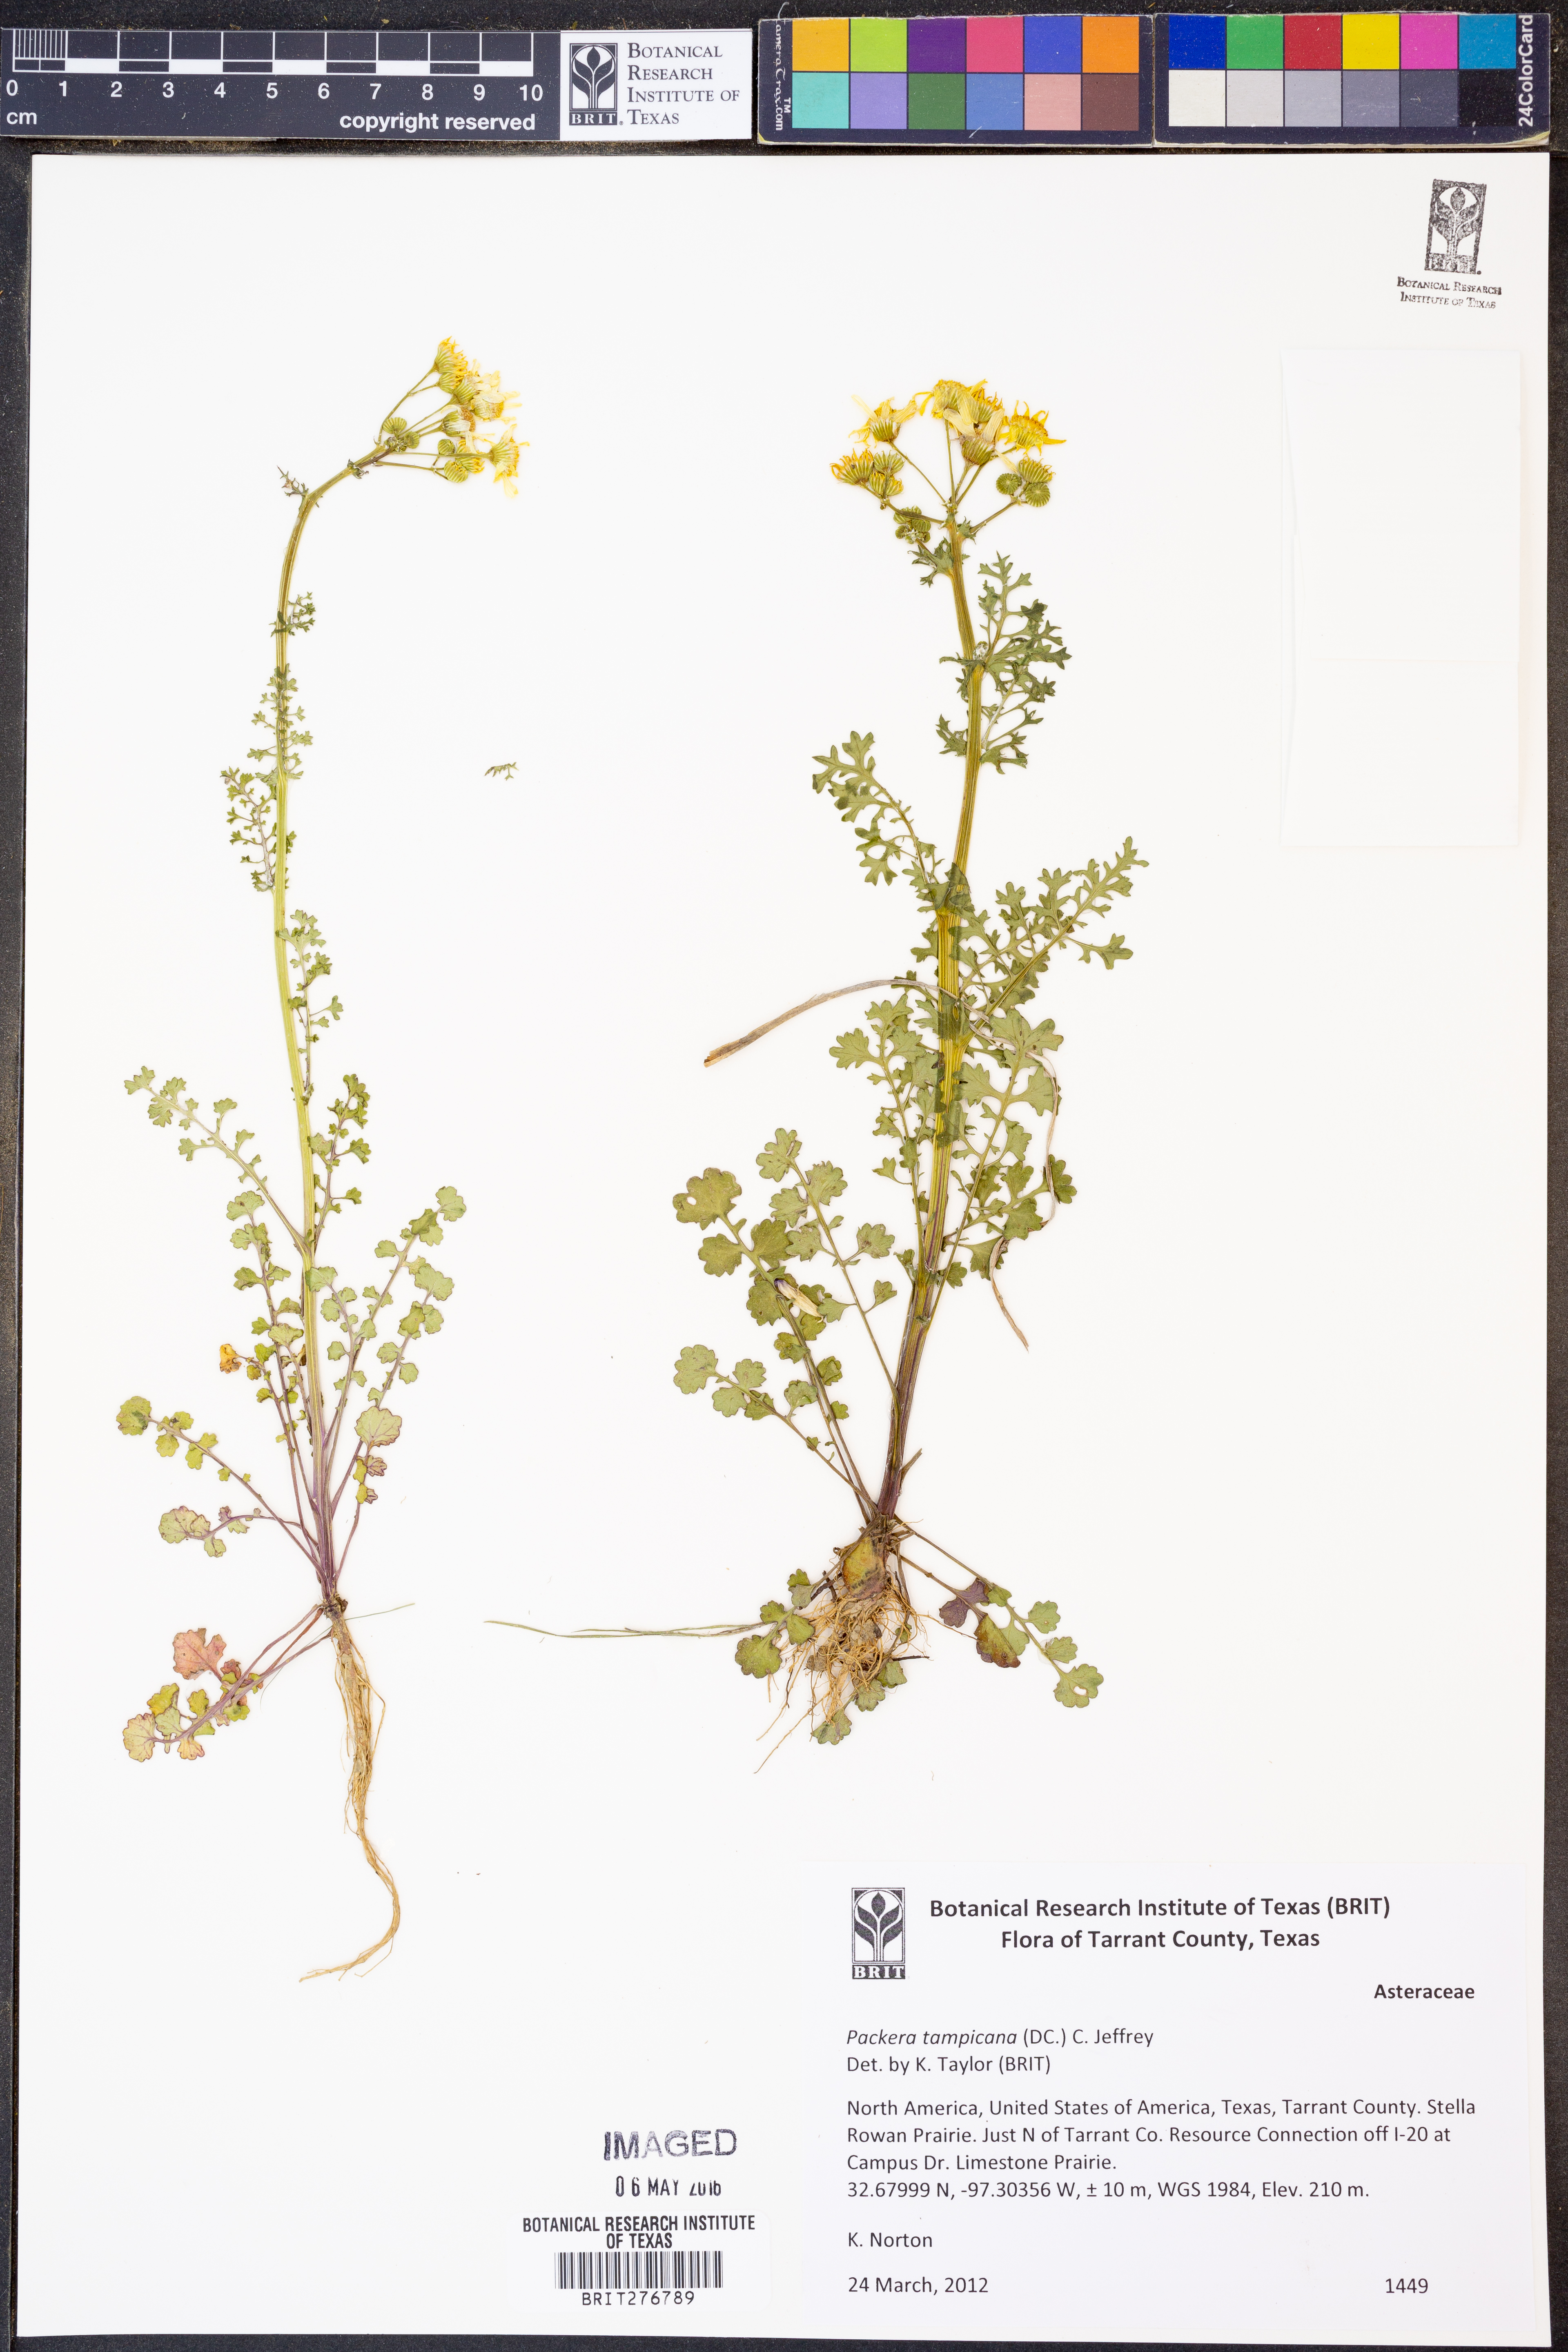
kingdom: Plantae
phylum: Tracheophyta
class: Magnoliopsida
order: Asterales
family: Asteraceae
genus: Packera
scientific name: Packera tampicana
